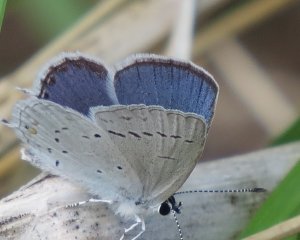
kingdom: Animalia
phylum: Arthropoda
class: Insecta
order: Lepidoptera
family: Lycaenidae
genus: Elkalyce
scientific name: Elkalyce amyntula
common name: Western Tailed-Blue
